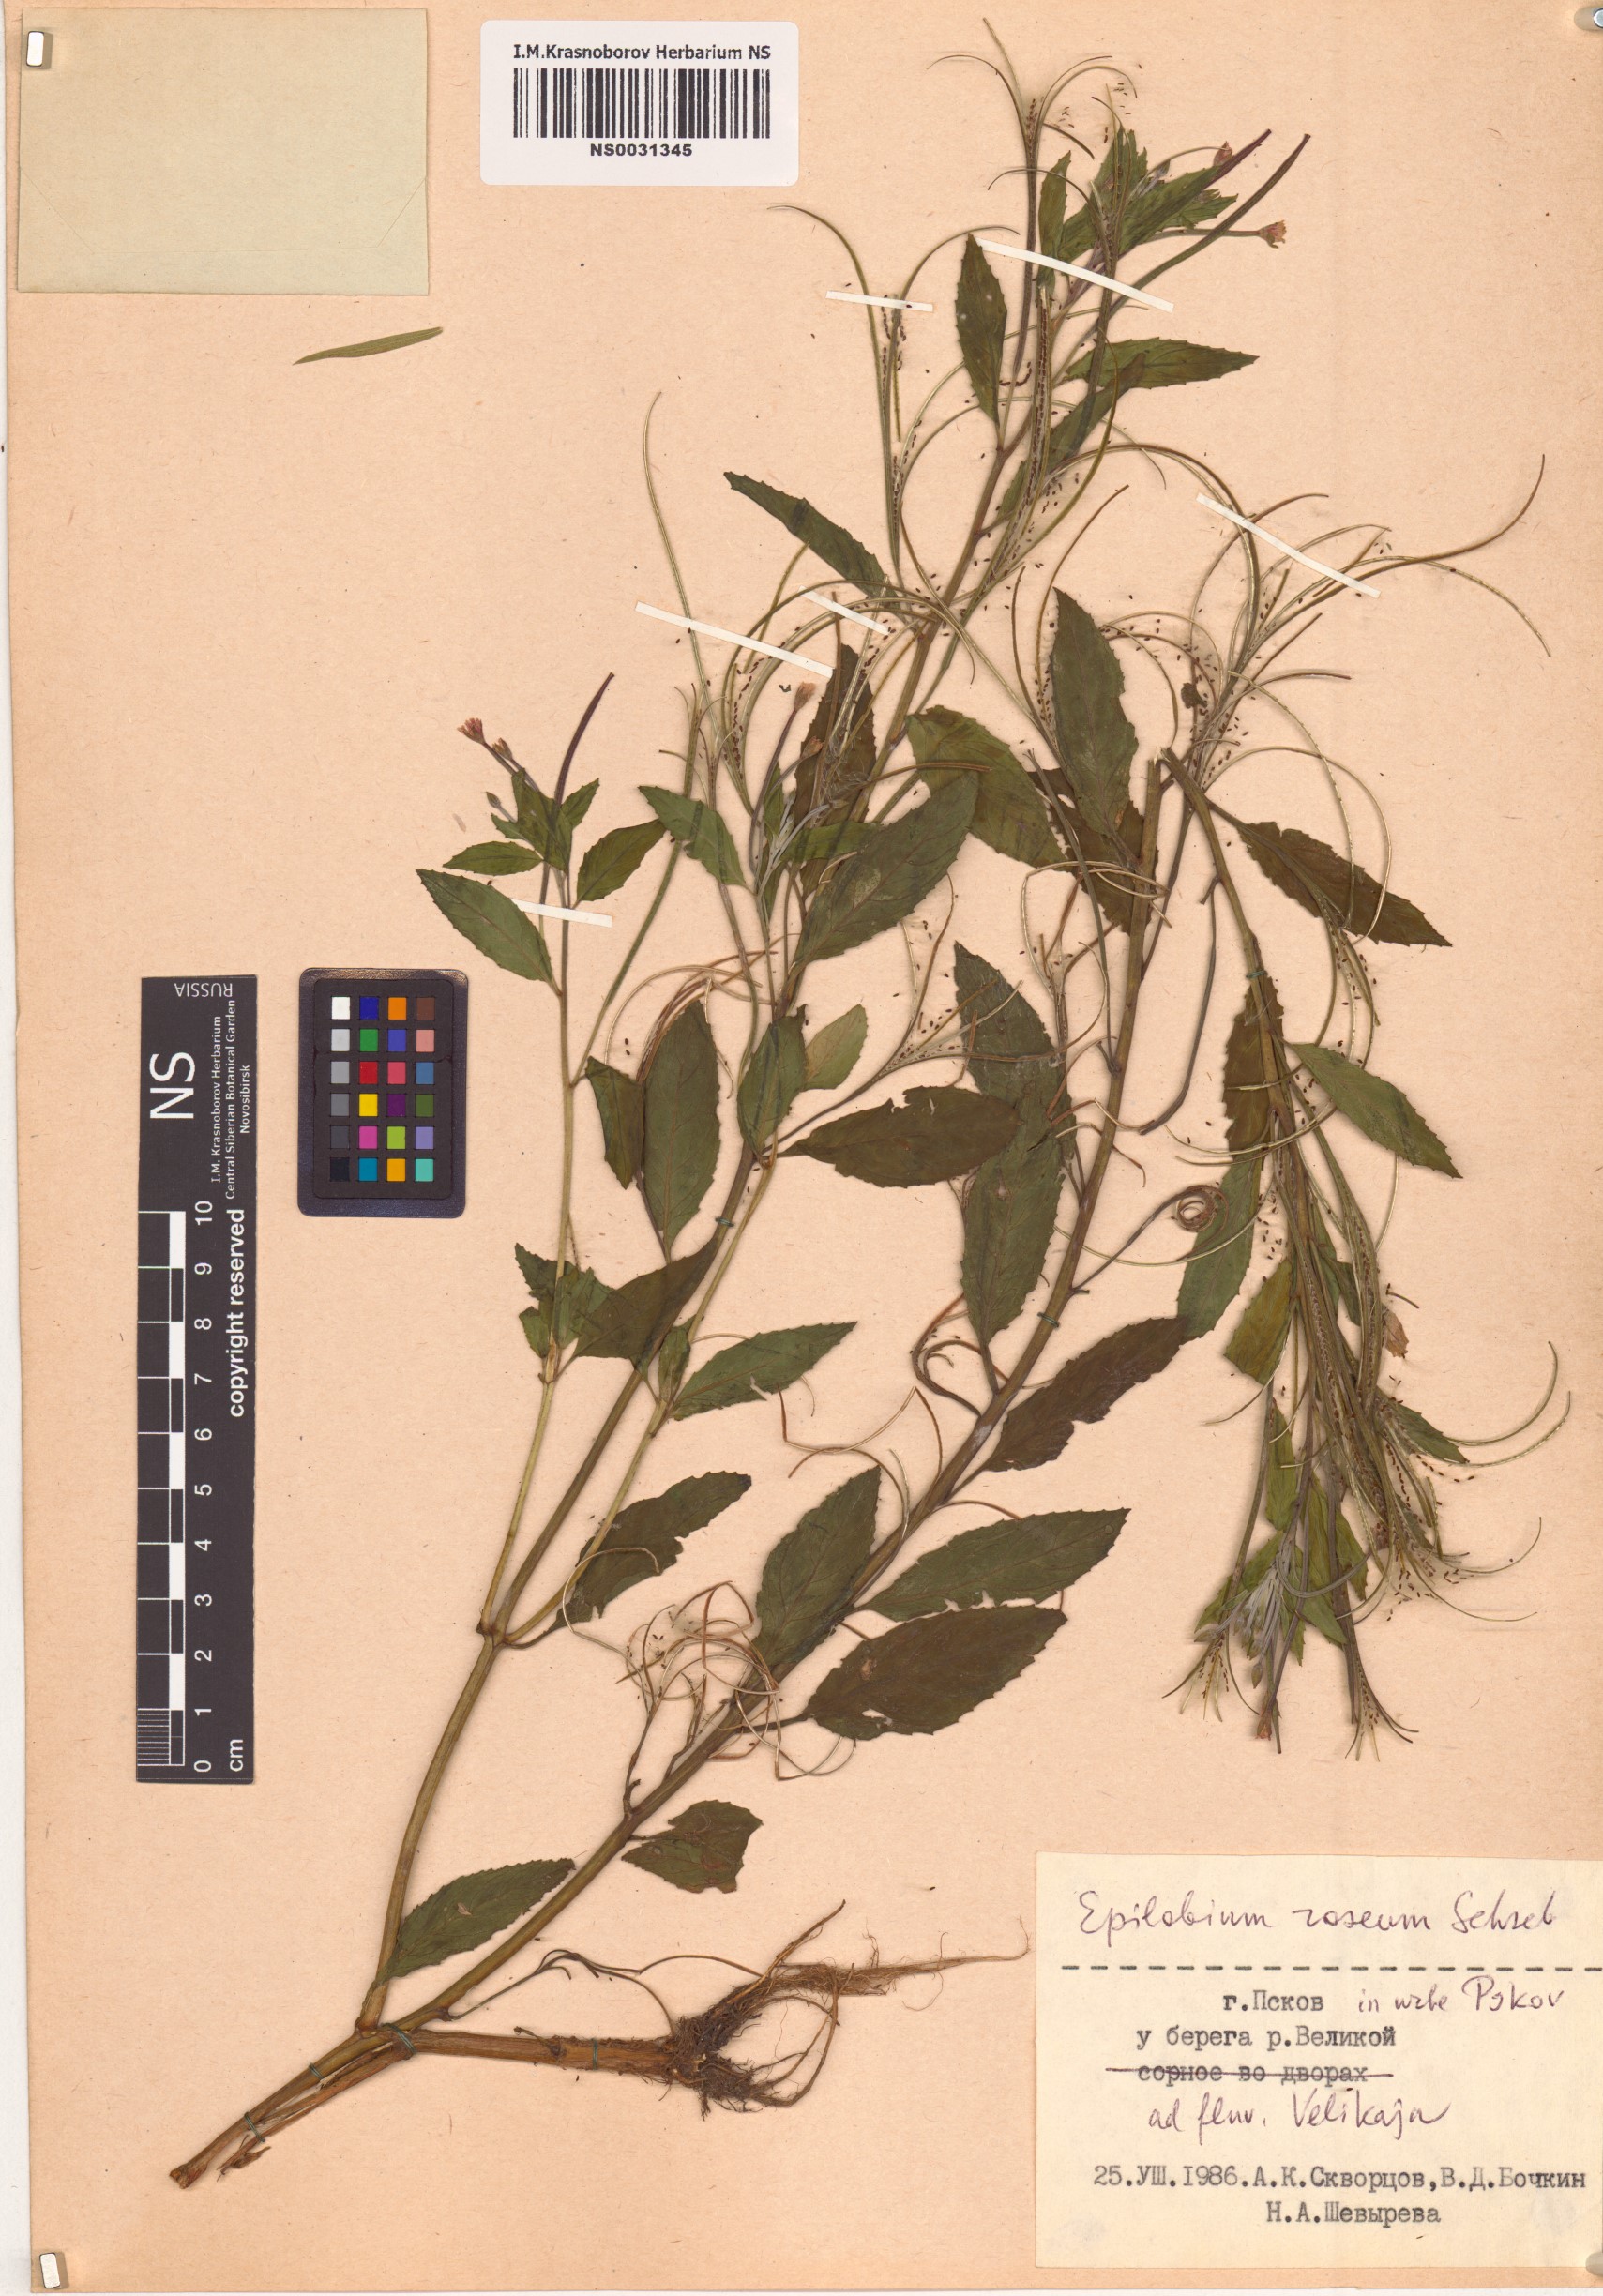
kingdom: Plantae
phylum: Tracheophyta
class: Magnoliopsida
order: Myrtales
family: Onagraceae
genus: Epilobium
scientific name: Epilobium roseum
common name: Pale willowherb
